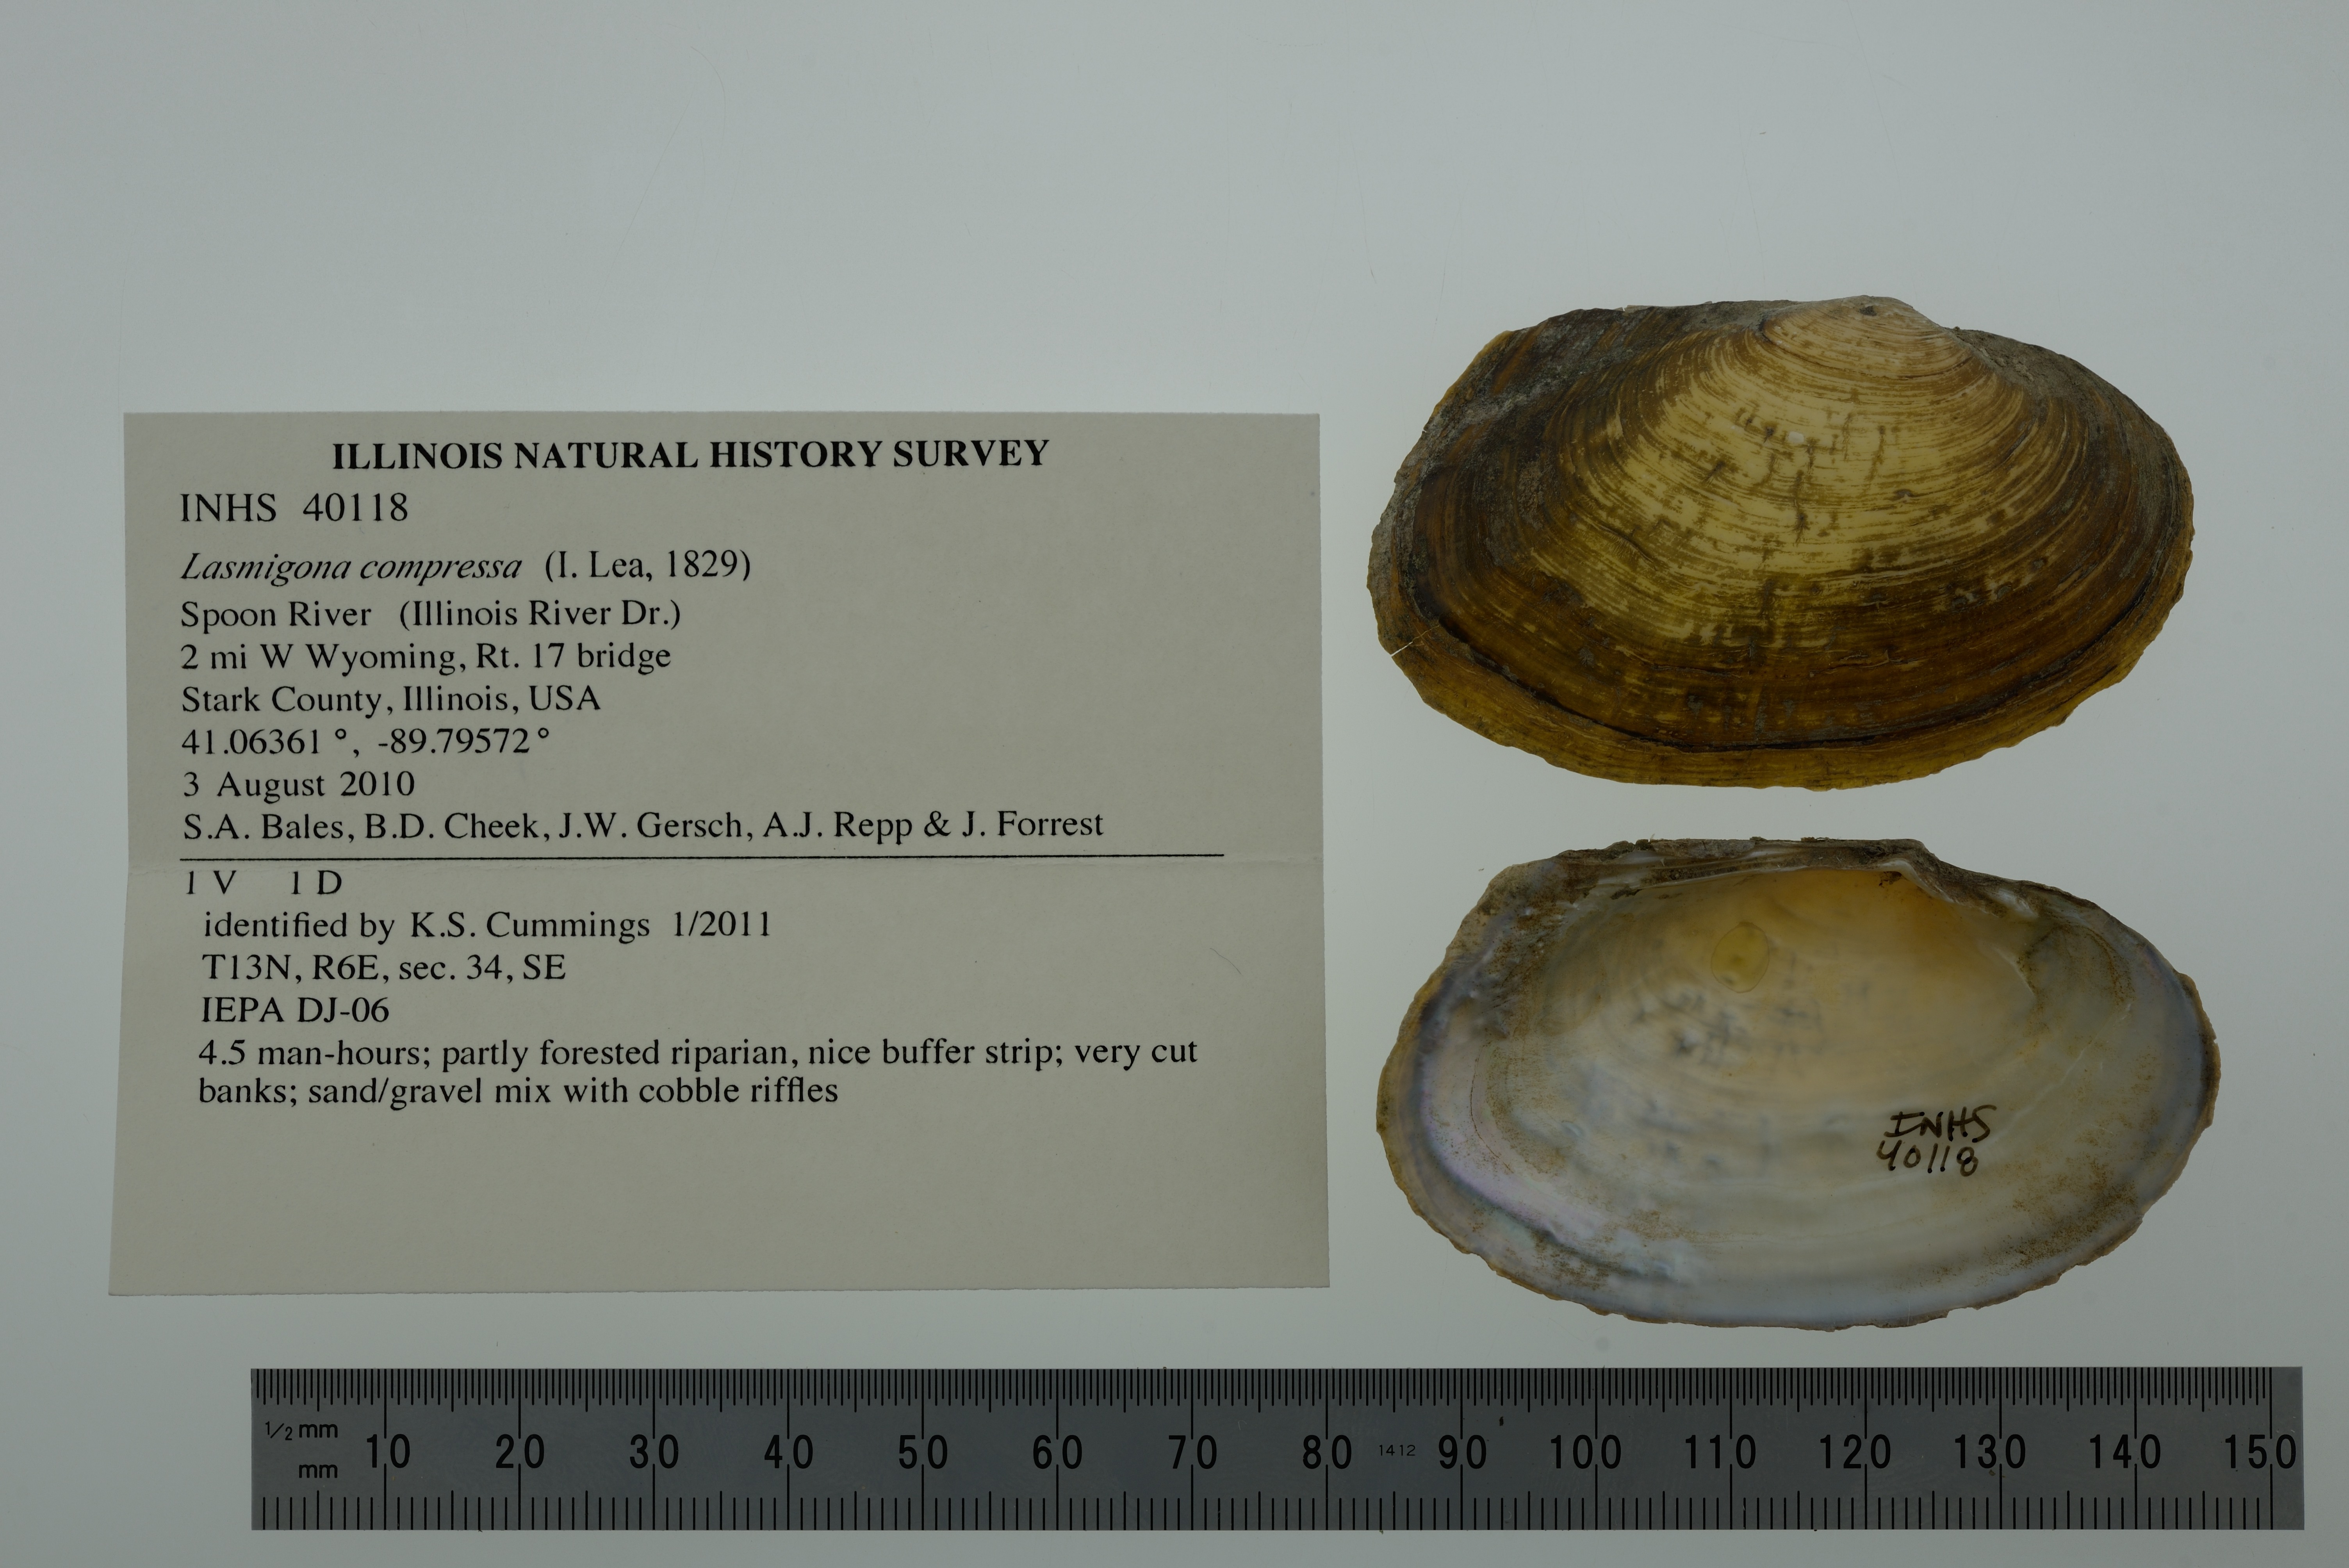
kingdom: Animalia
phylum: Mollusca
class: Bivalvia
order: Unionida
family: Unionidae
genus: Lasmigona
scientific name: Lasmigona compressa
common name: Creek heelsplitter
